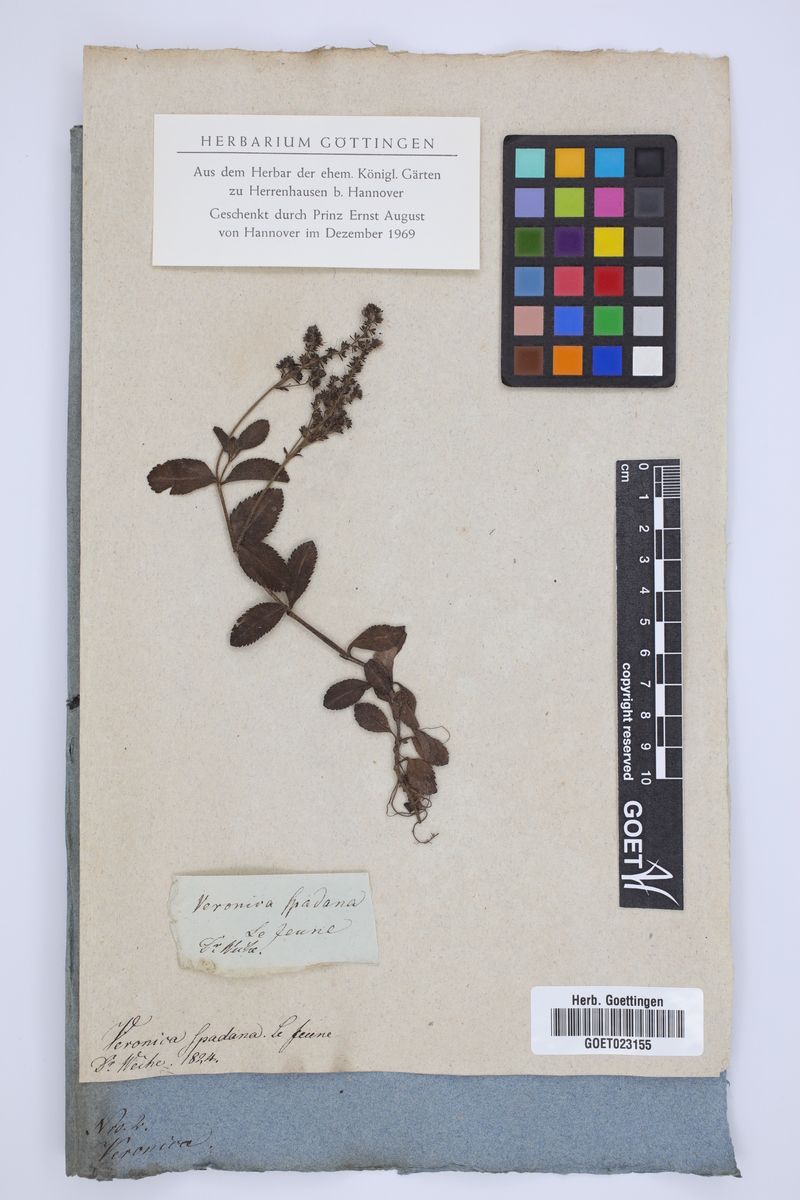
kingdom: Plantae
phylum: Tracheophyta
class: Magnoliopsida
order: Lamiales
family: Plantaginaceae
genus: Veronica
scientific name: Veronica officinalis
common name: Common speedwell
